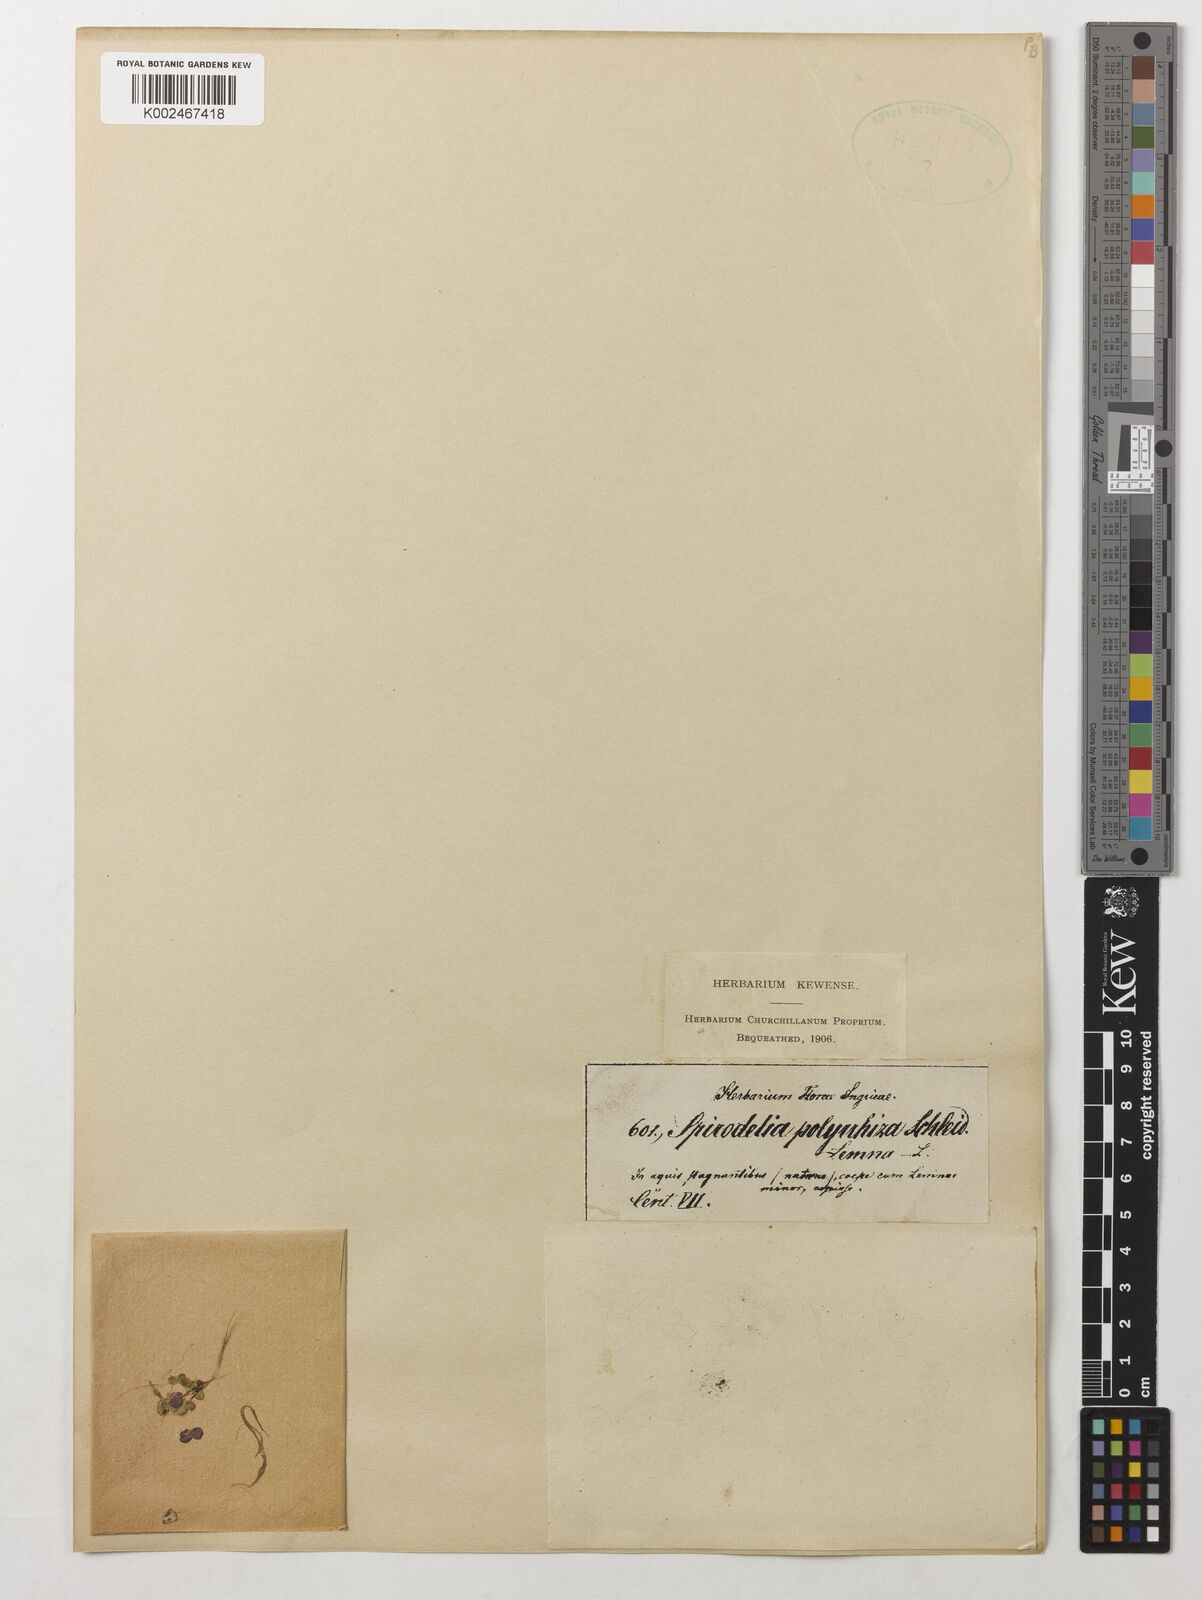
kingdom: Plantae
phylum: Tracheophyta
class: Liliopsida
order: Alismatales
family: Araceae
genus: Spirodela
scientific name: Spirodela polyrhiza
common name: Great duckweed
